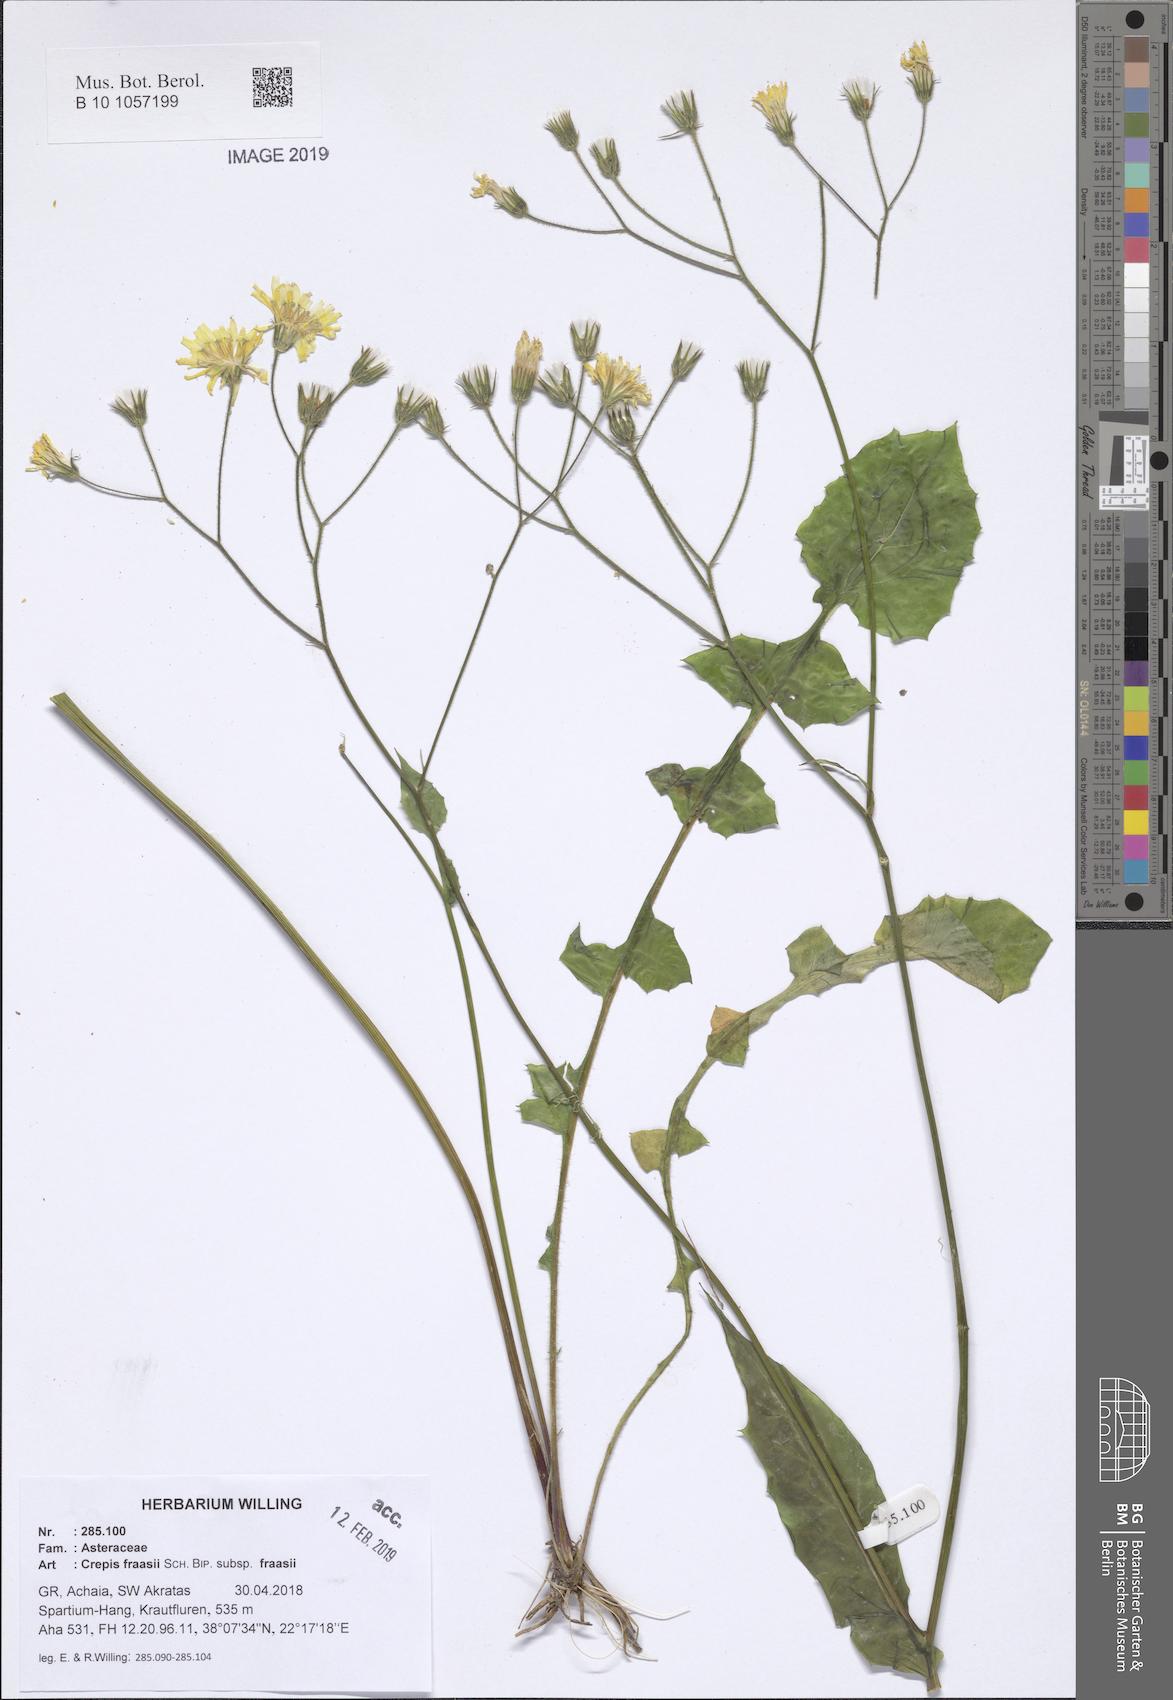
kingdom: Plantae
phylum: Tracheophyta
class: Magnoliopsida
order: Asterales
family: Asteraceae
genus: Crepis
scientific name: Crepis fraasii
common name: Hawk's-beard
